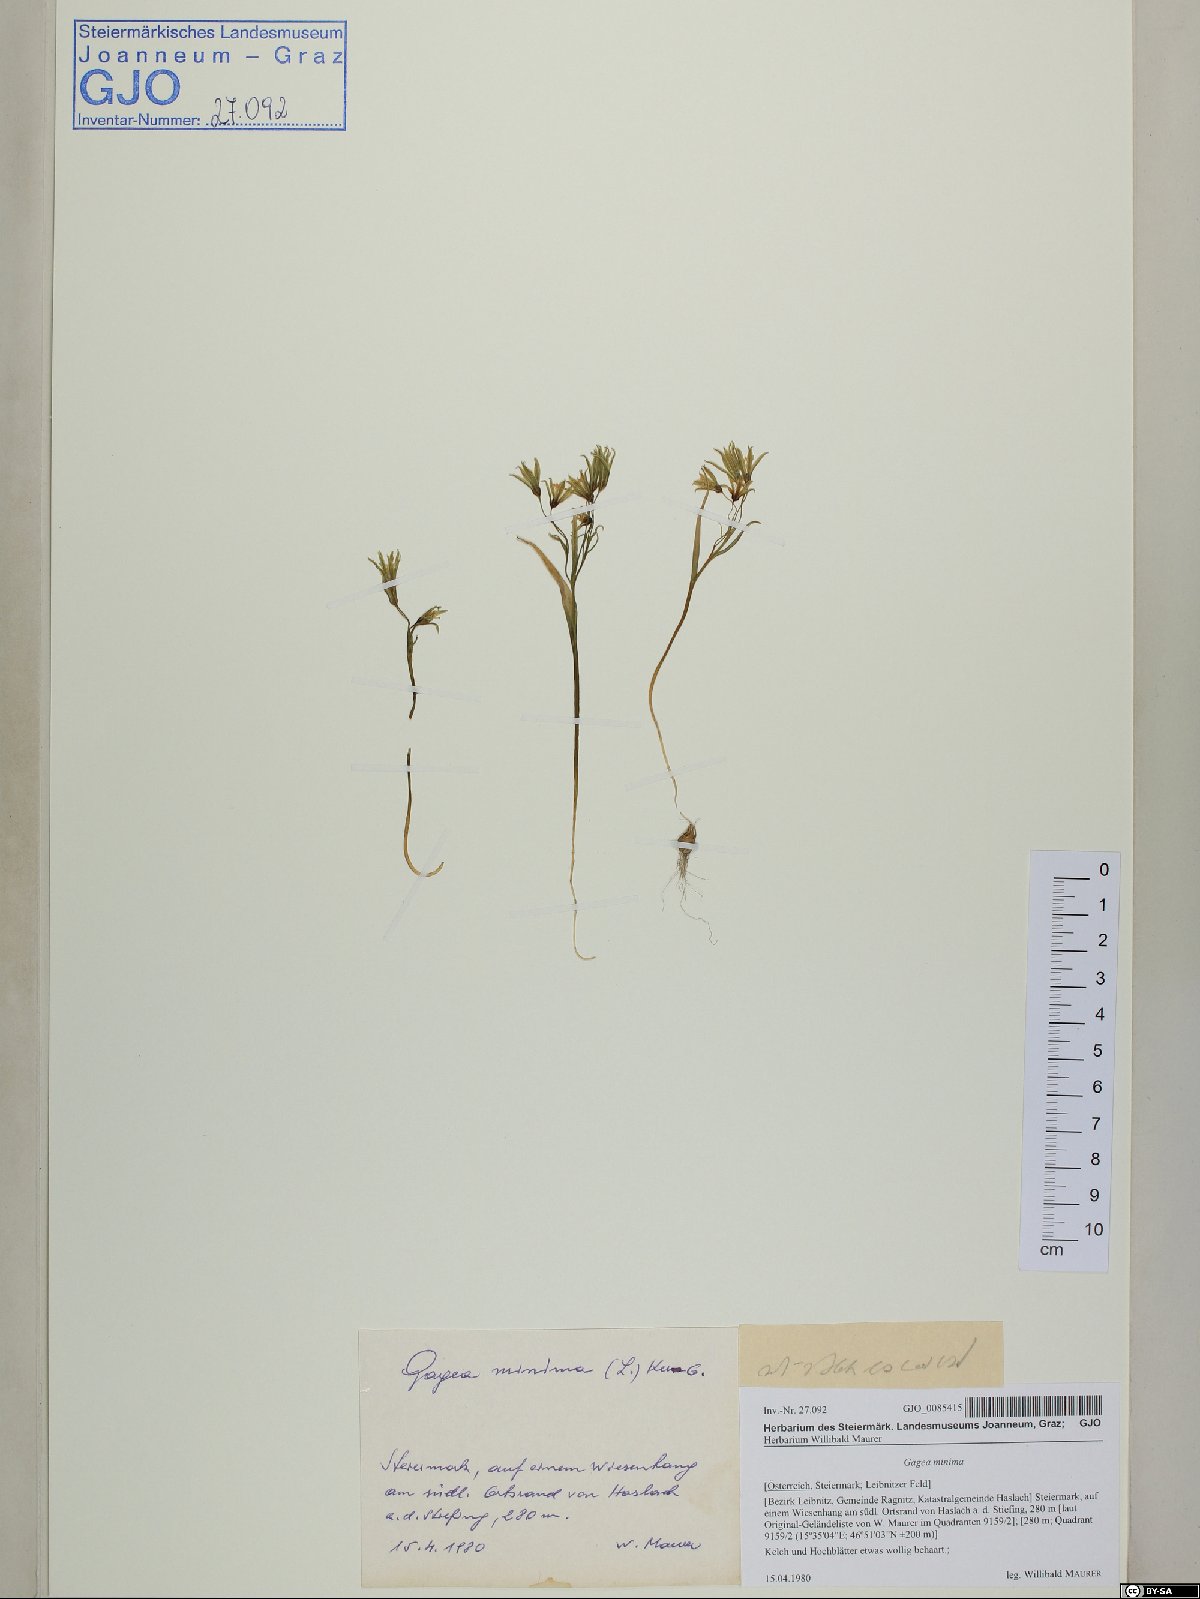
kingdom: Plantae
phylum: Tracheophyta
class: Liliopsida
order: Liliales
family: Liliaceae
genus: Gagea
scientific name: Gagea minima
